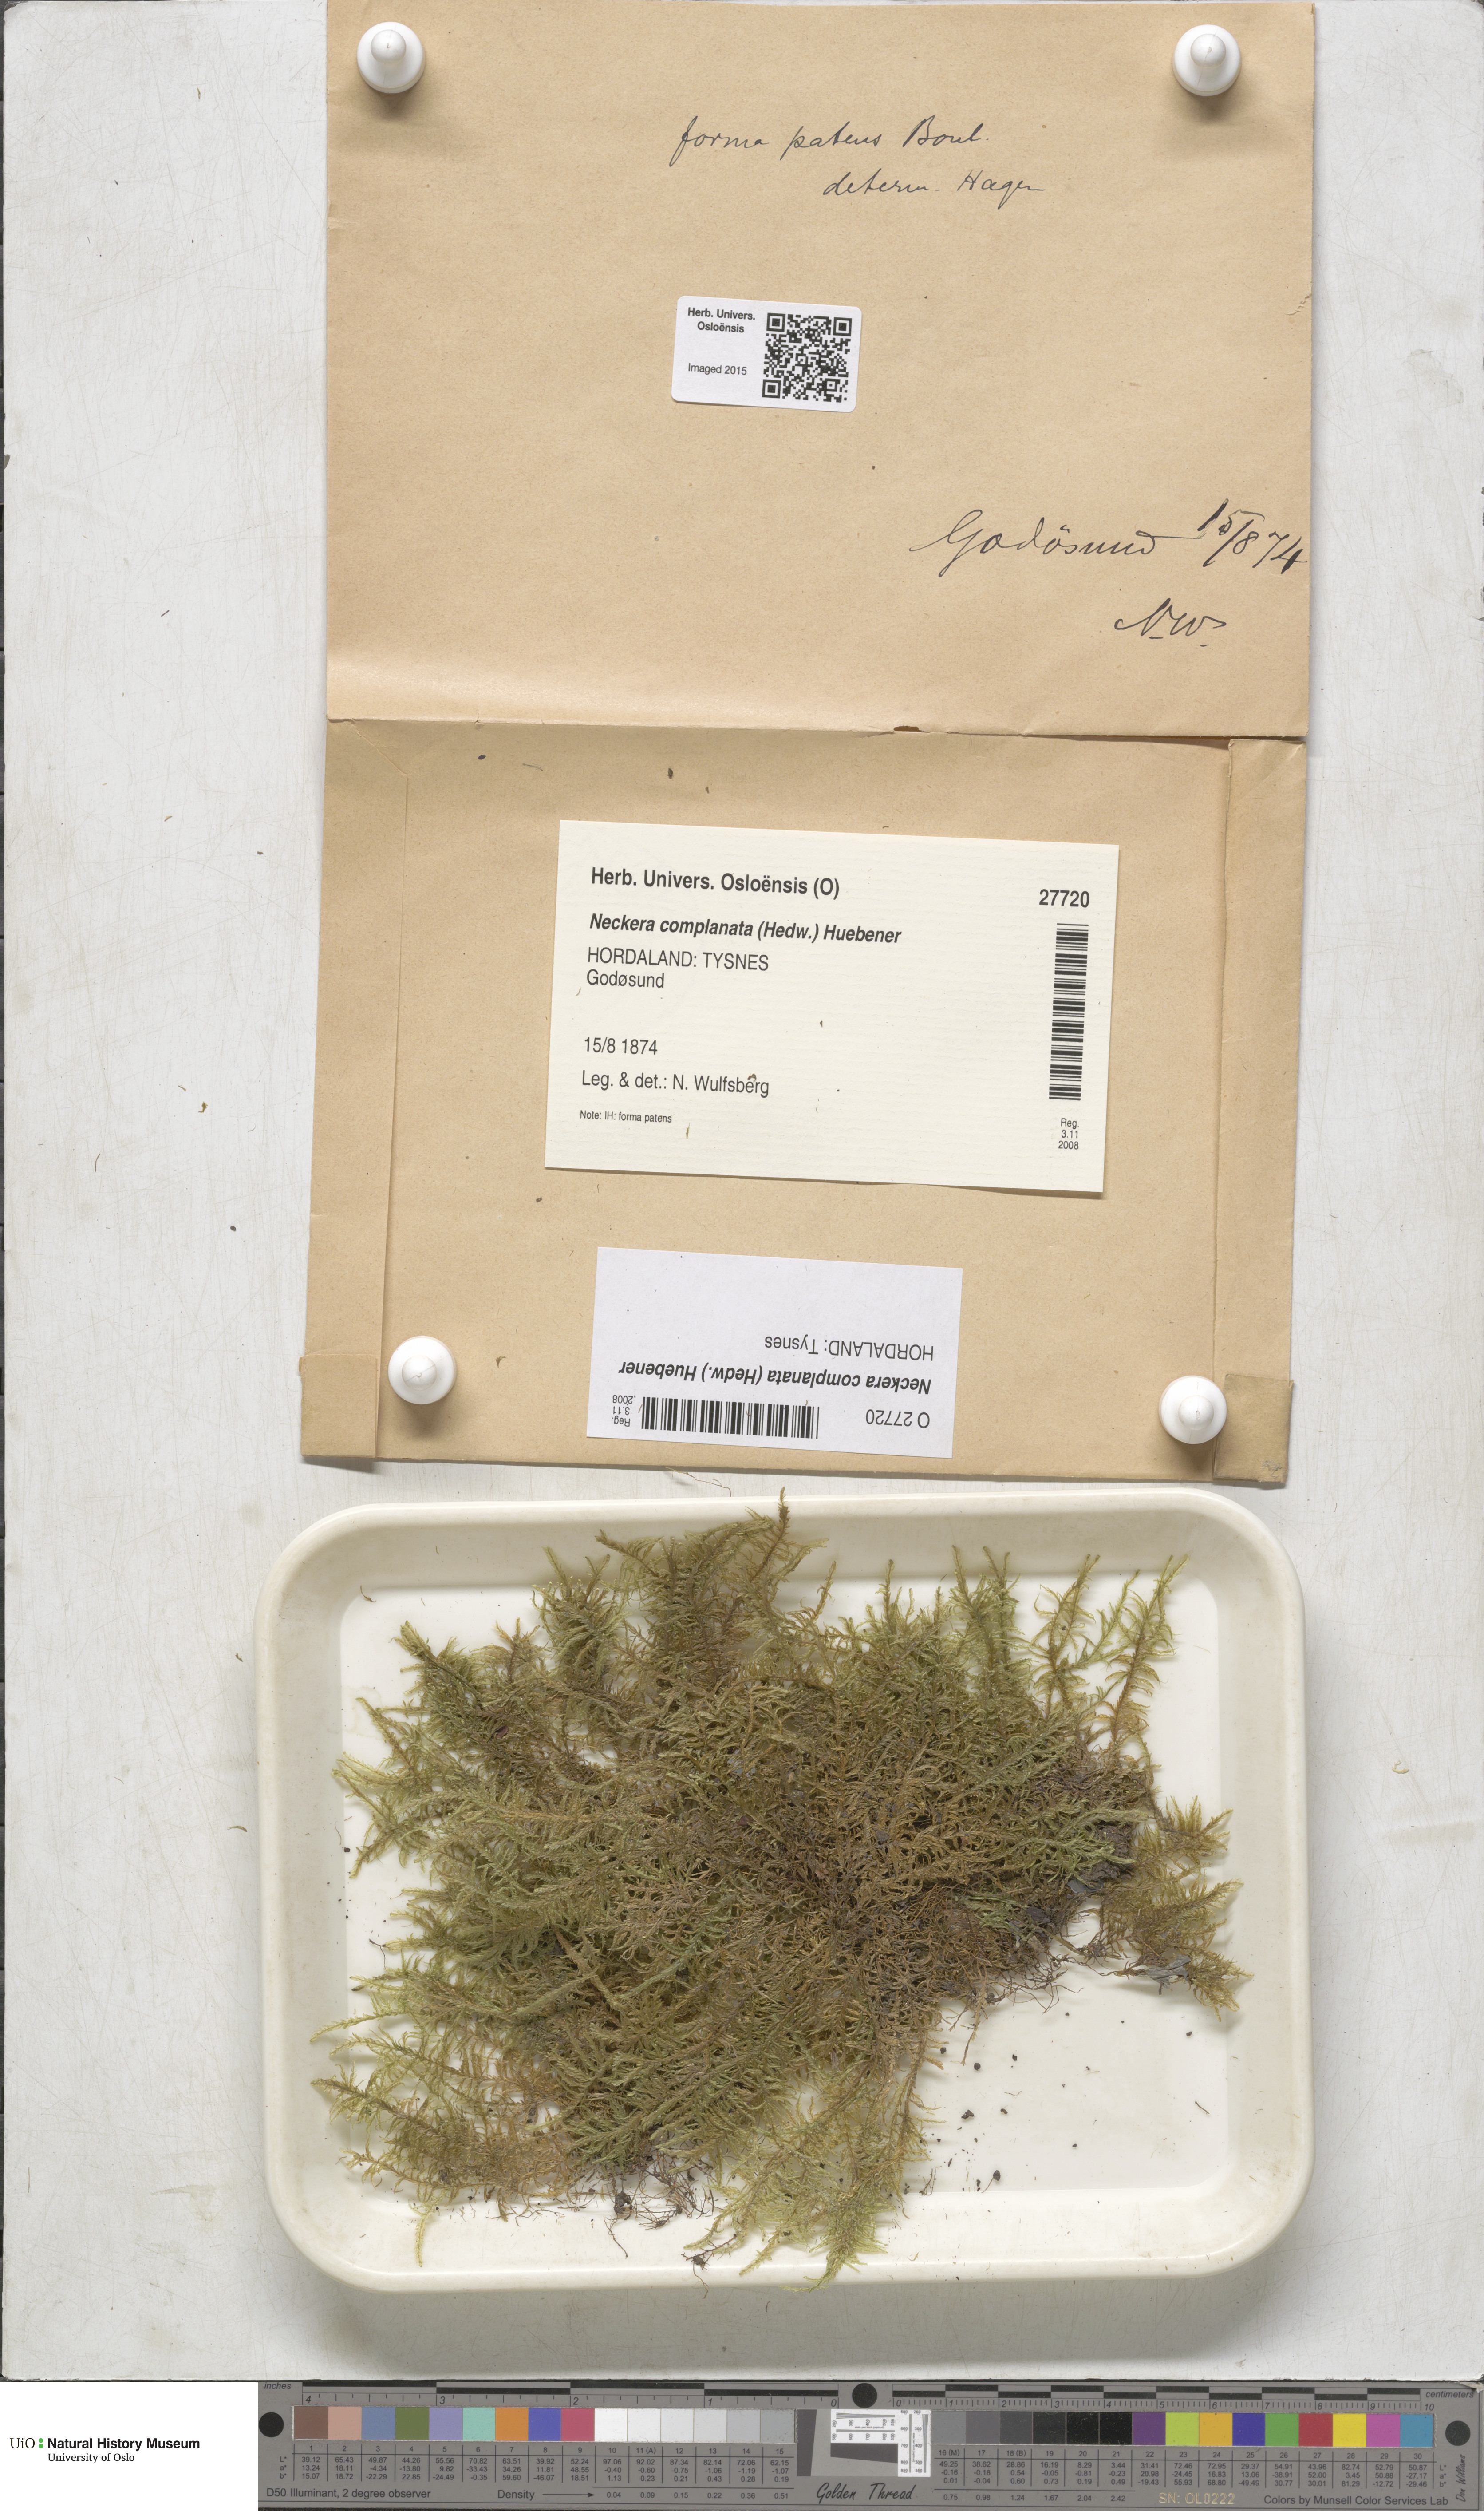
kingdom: Plantae
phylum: Bryophyta
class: Bryopsida
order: Hypnales
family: Neckeraceae
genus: Alleniella
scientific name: Alleniella complanata
